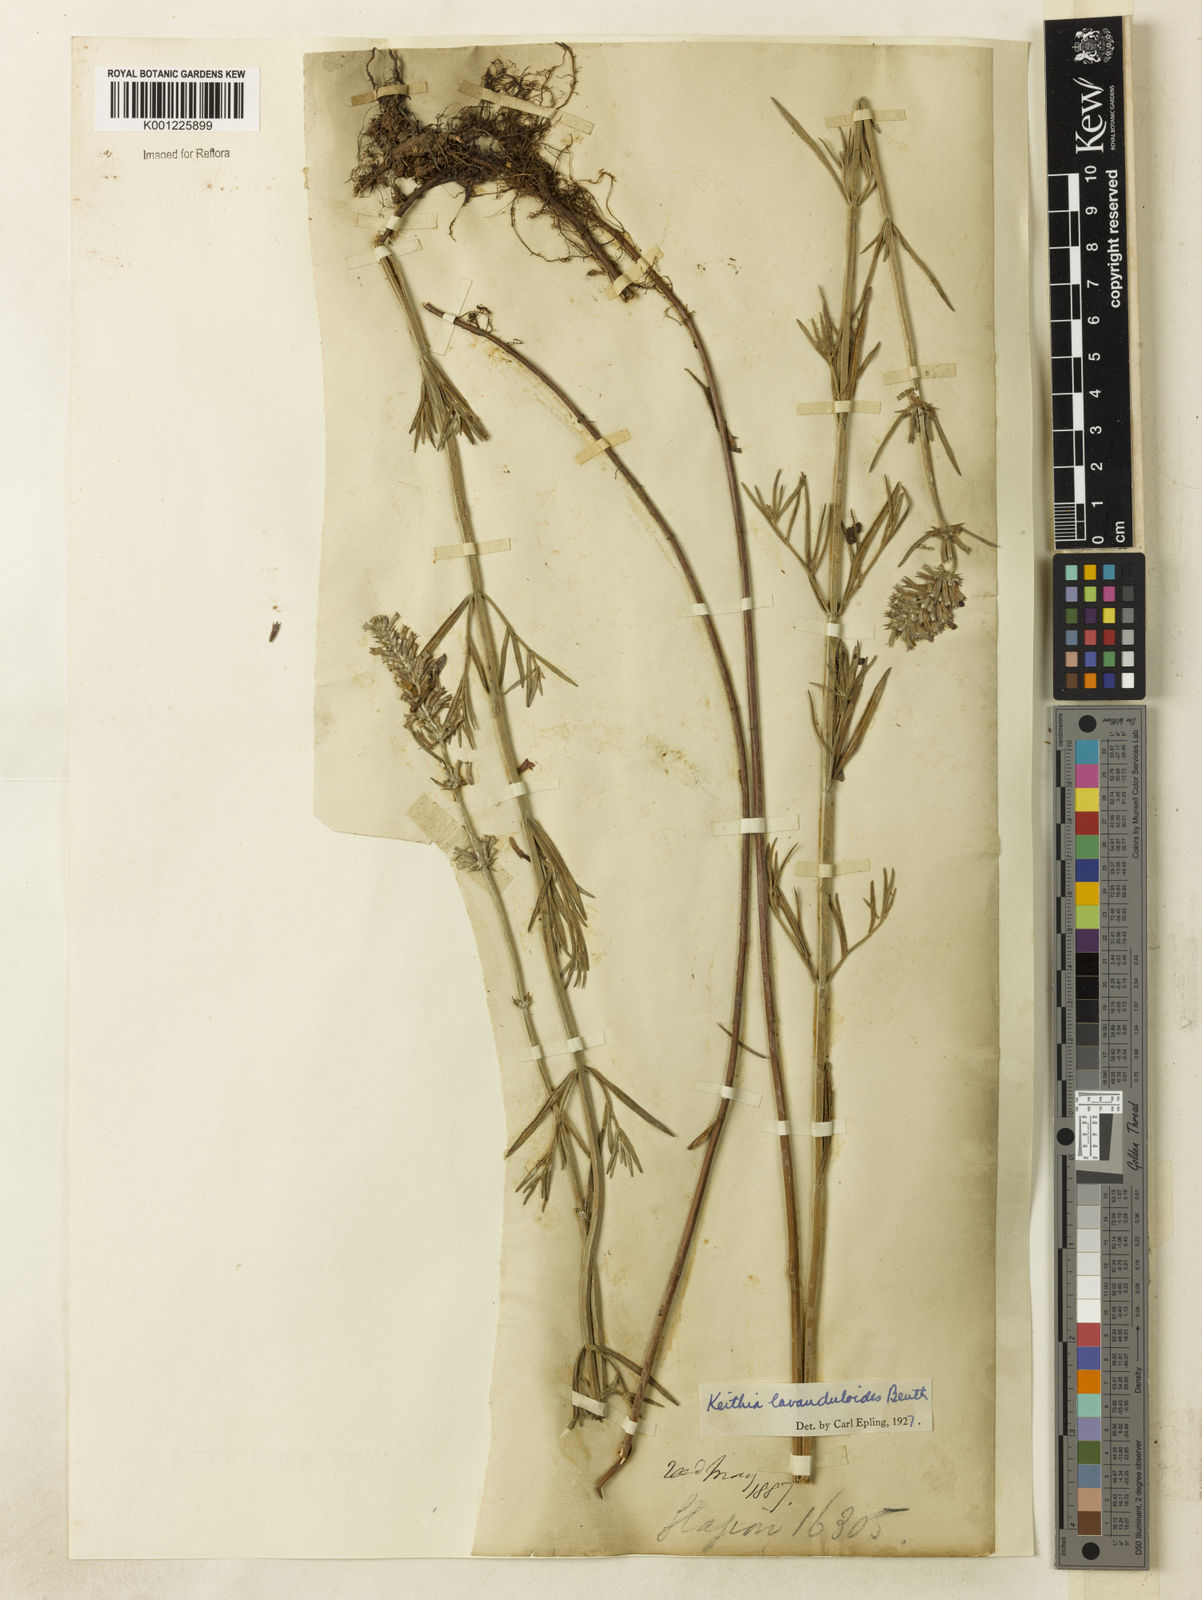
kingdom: Plantae
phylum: Tracheophyta
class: Magnoliopsida
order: Lamiales
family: Lamiaceae
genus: Rhabdocaulon
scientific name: Rhabdocaulon lavanduloides
